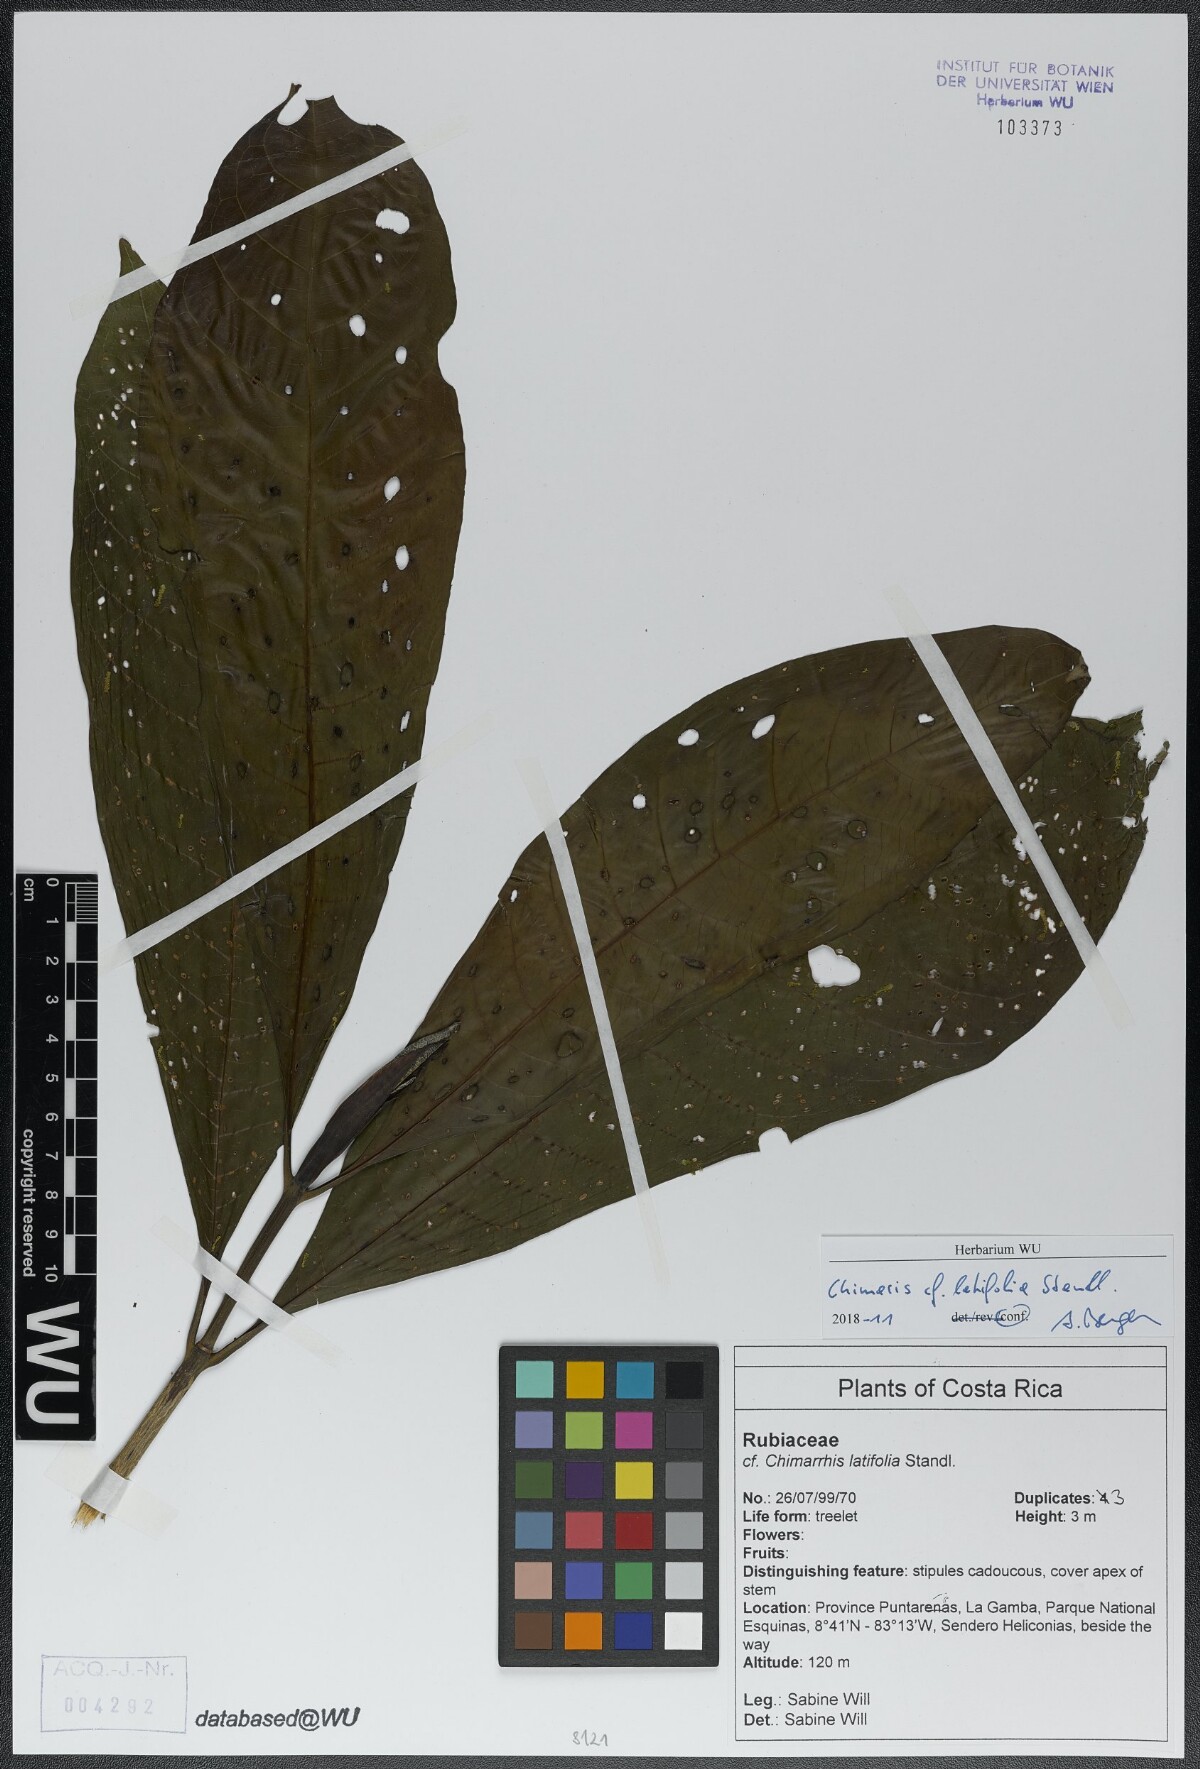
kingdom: Plantae
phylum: Tracheophyta
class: Magnoliopsida
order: Gentianales
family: Rubiaceae
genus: Chimarrhis
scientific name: Chimarrhis latifolia
